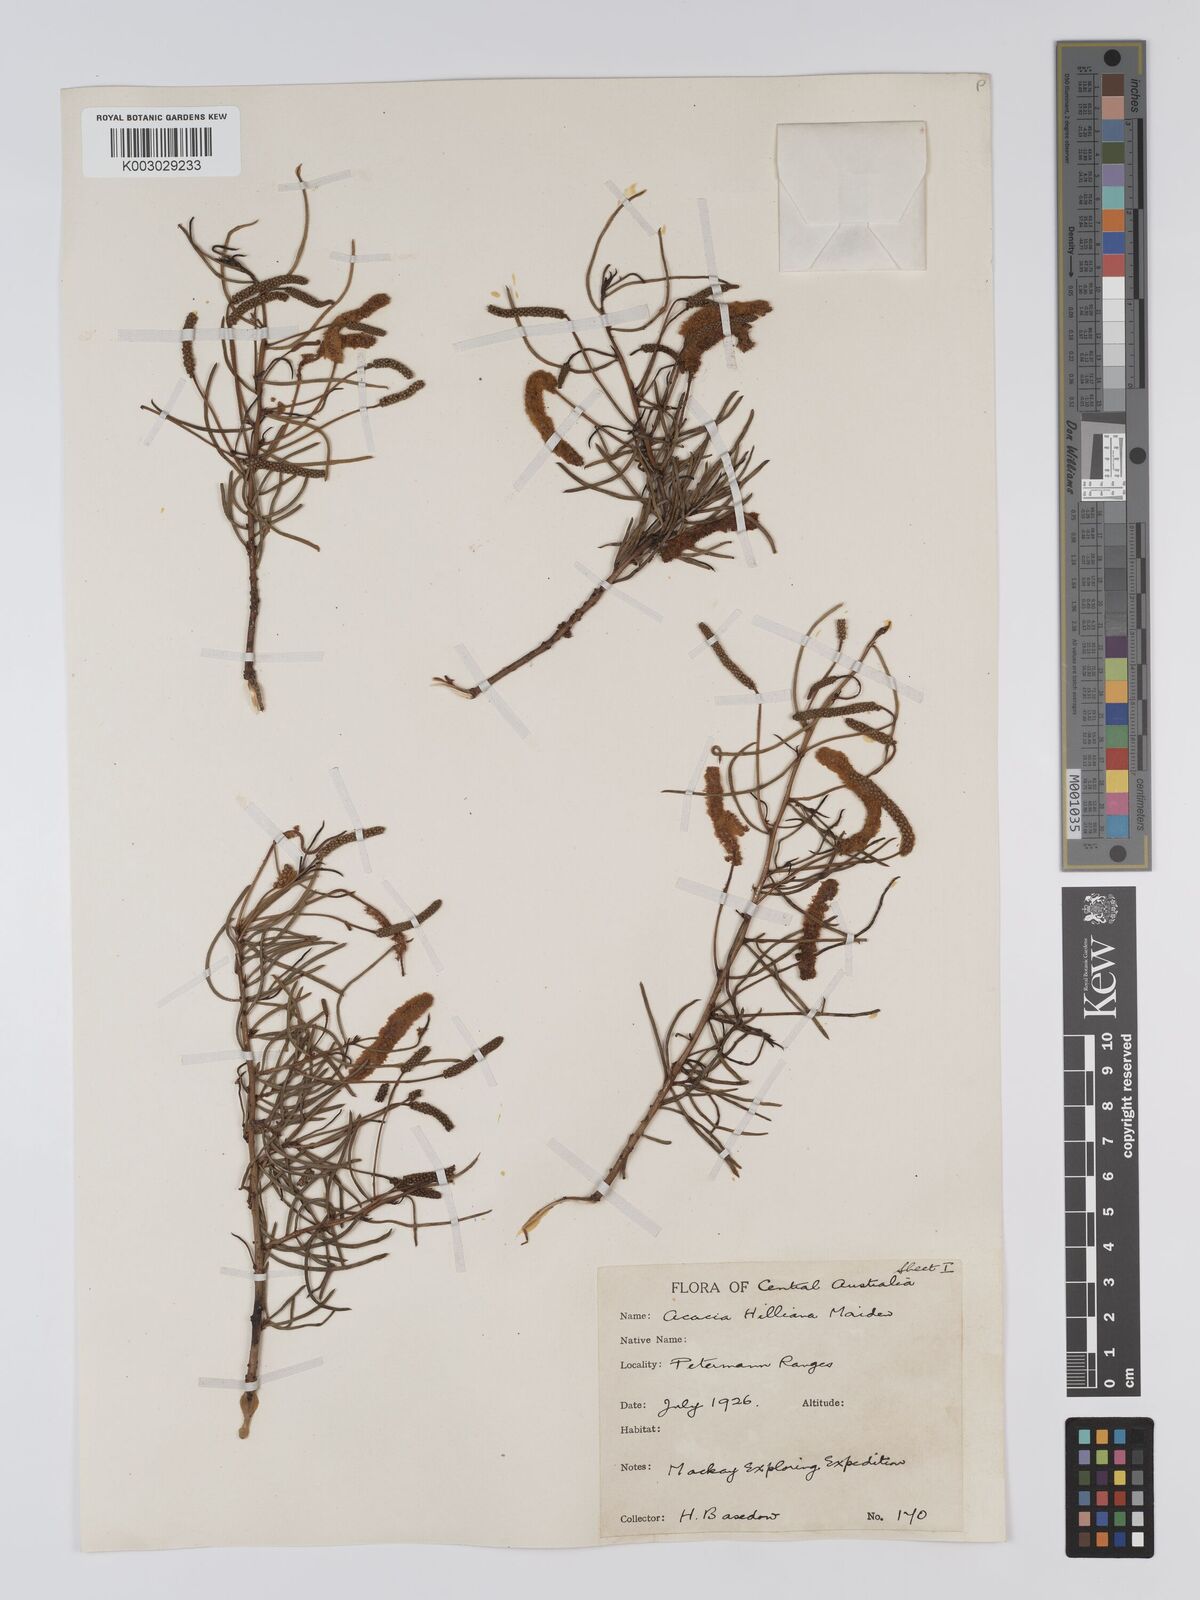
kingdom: Plantae
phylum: Tracheophyta
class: Magnoliopsida
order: Fabales
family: Fabaceae
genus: Acacia
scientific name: Acacia hilliana
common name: Hill's tabletop wattle
